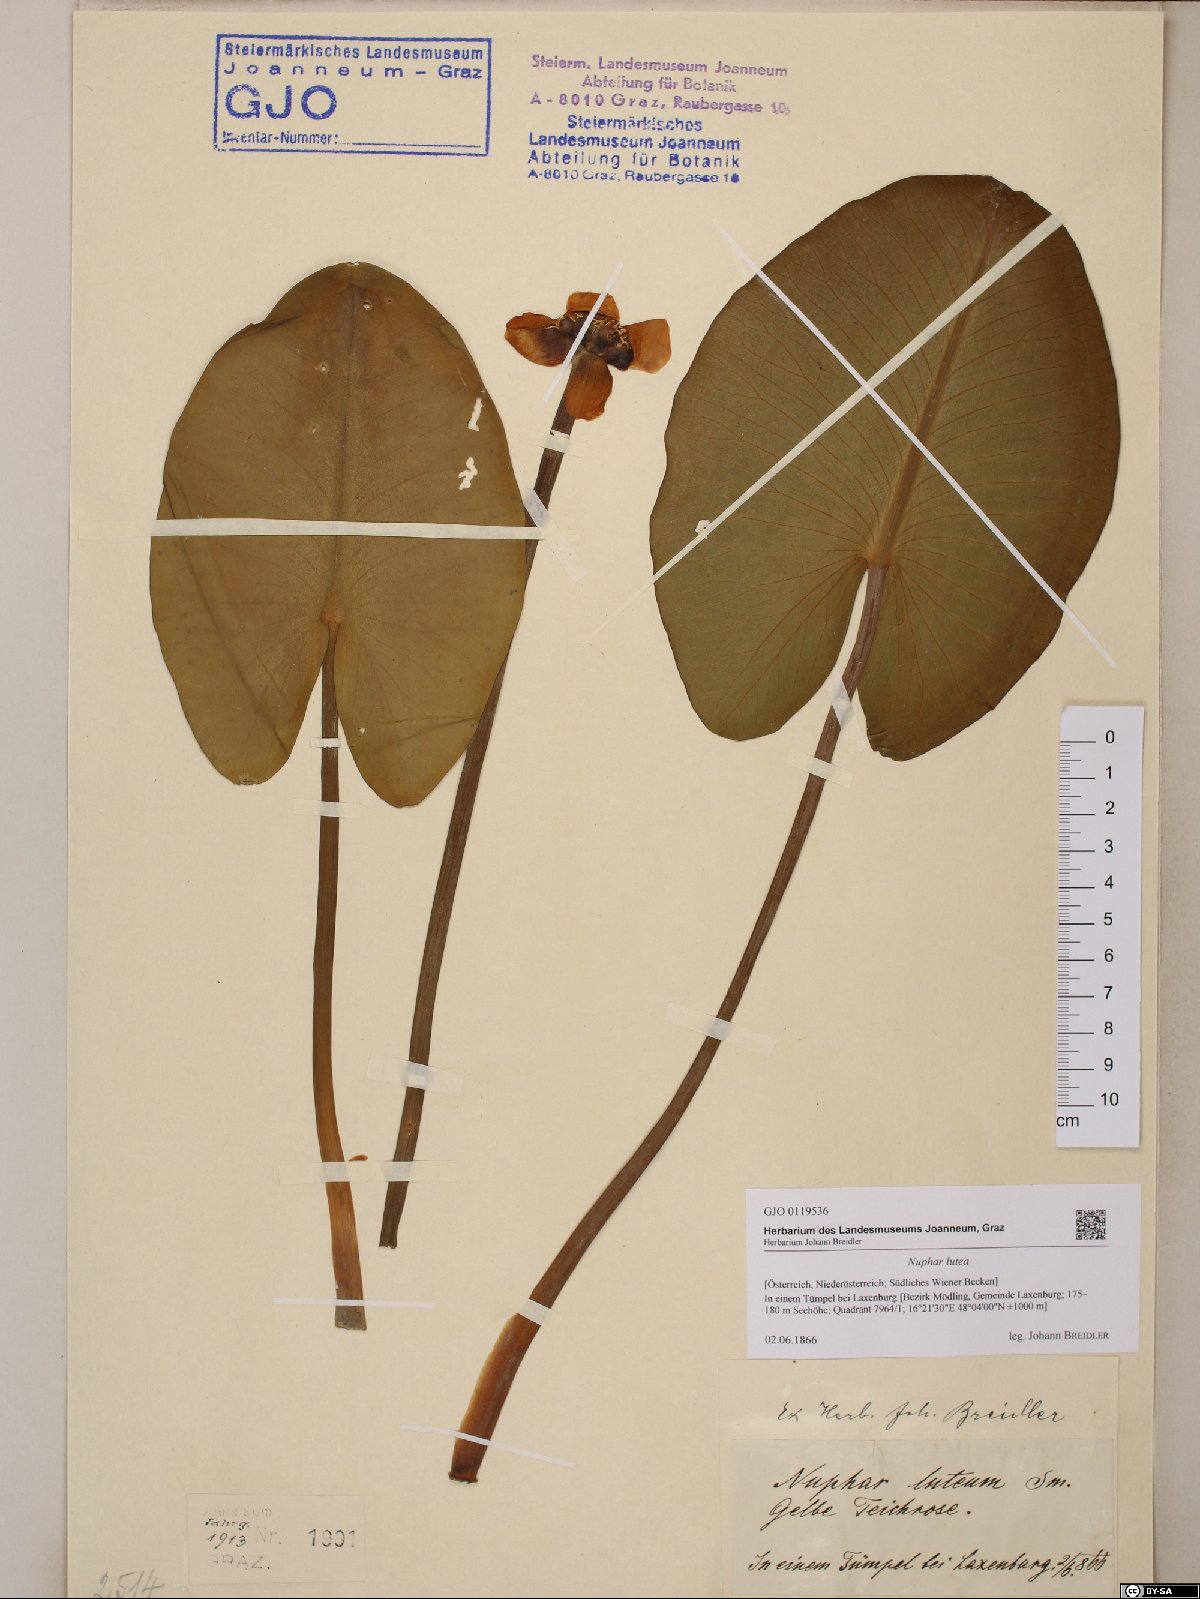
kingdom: Plantae
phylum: Tracheophyta
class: Magnoliopsida
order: Nymphaeales
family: Nymphaeaceae
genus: Nuphar
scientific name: Nuphar lutea
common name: Yellow water-lily
